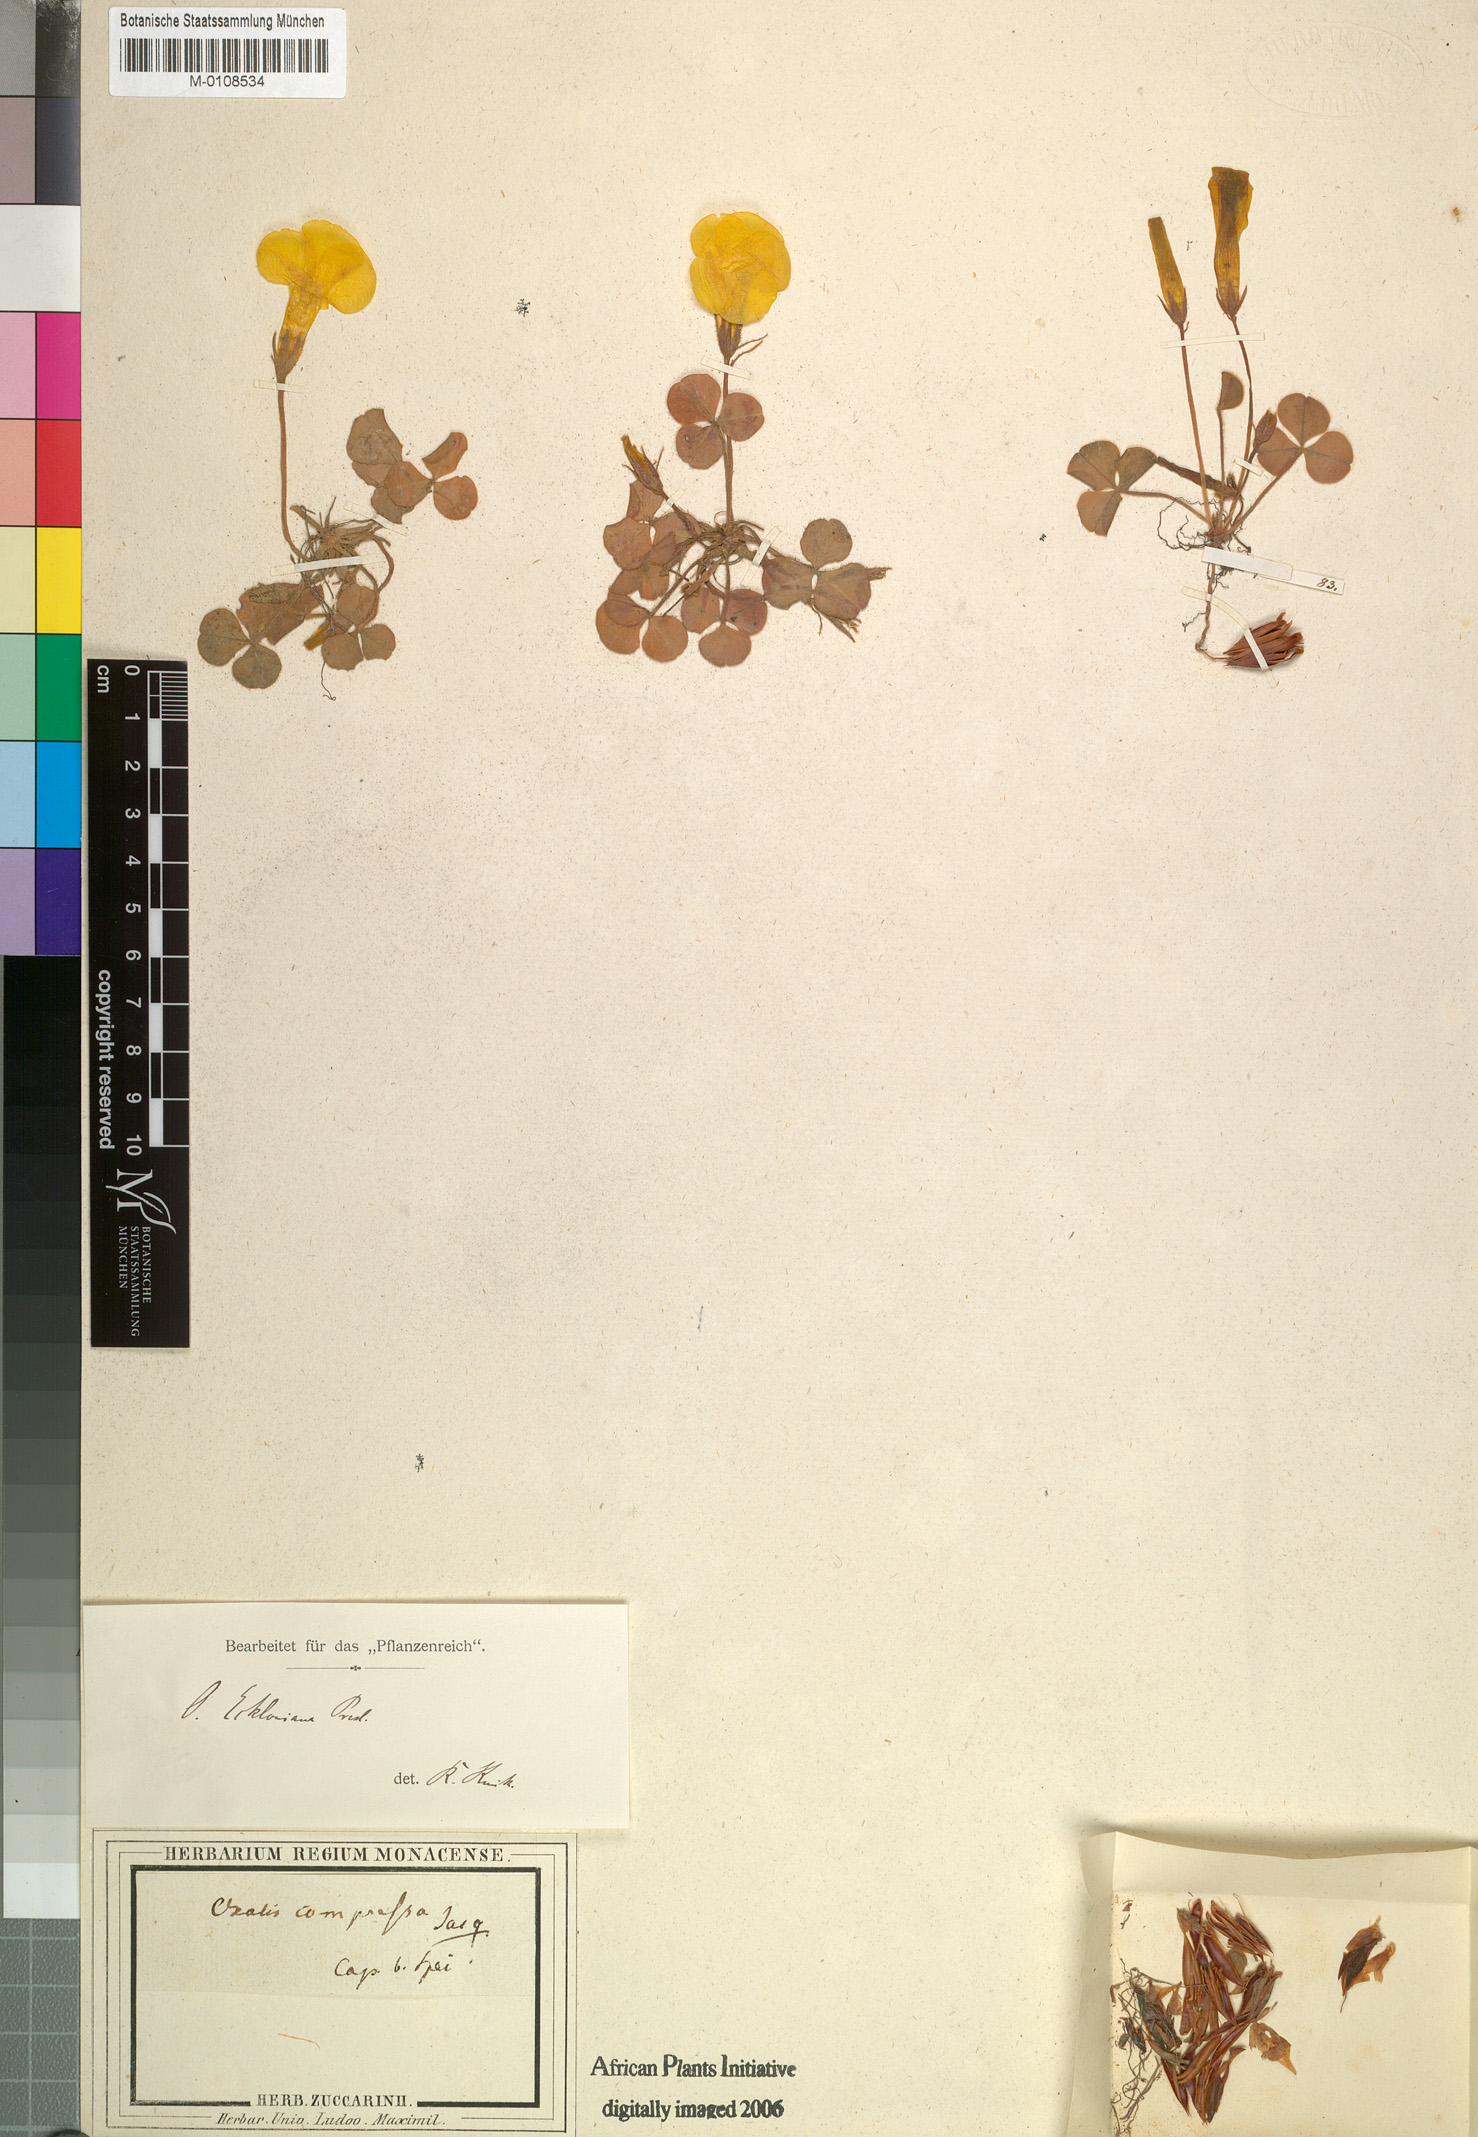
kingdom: Plantae
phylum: Tracheophyta
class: Magnoliopsida
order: Oxalidales
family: Oxalidaceae
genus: Oxalis
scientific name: Oxalis compressa
